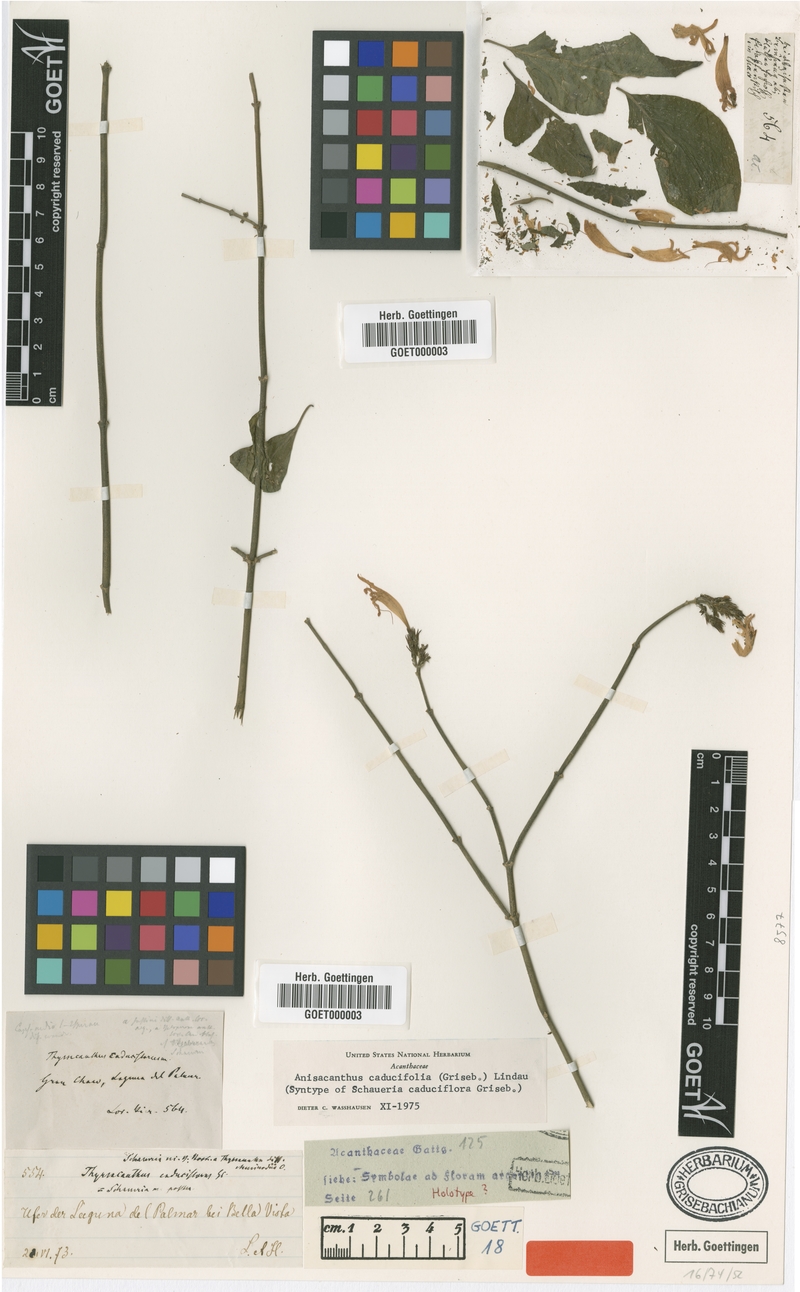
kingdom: Plantae
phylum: Tracheophyta
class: Magnoliopsida
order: Lamiales
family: Acanthaceae
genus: Thyrsacanthus
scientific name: Thyrsacanthus boliviensis
